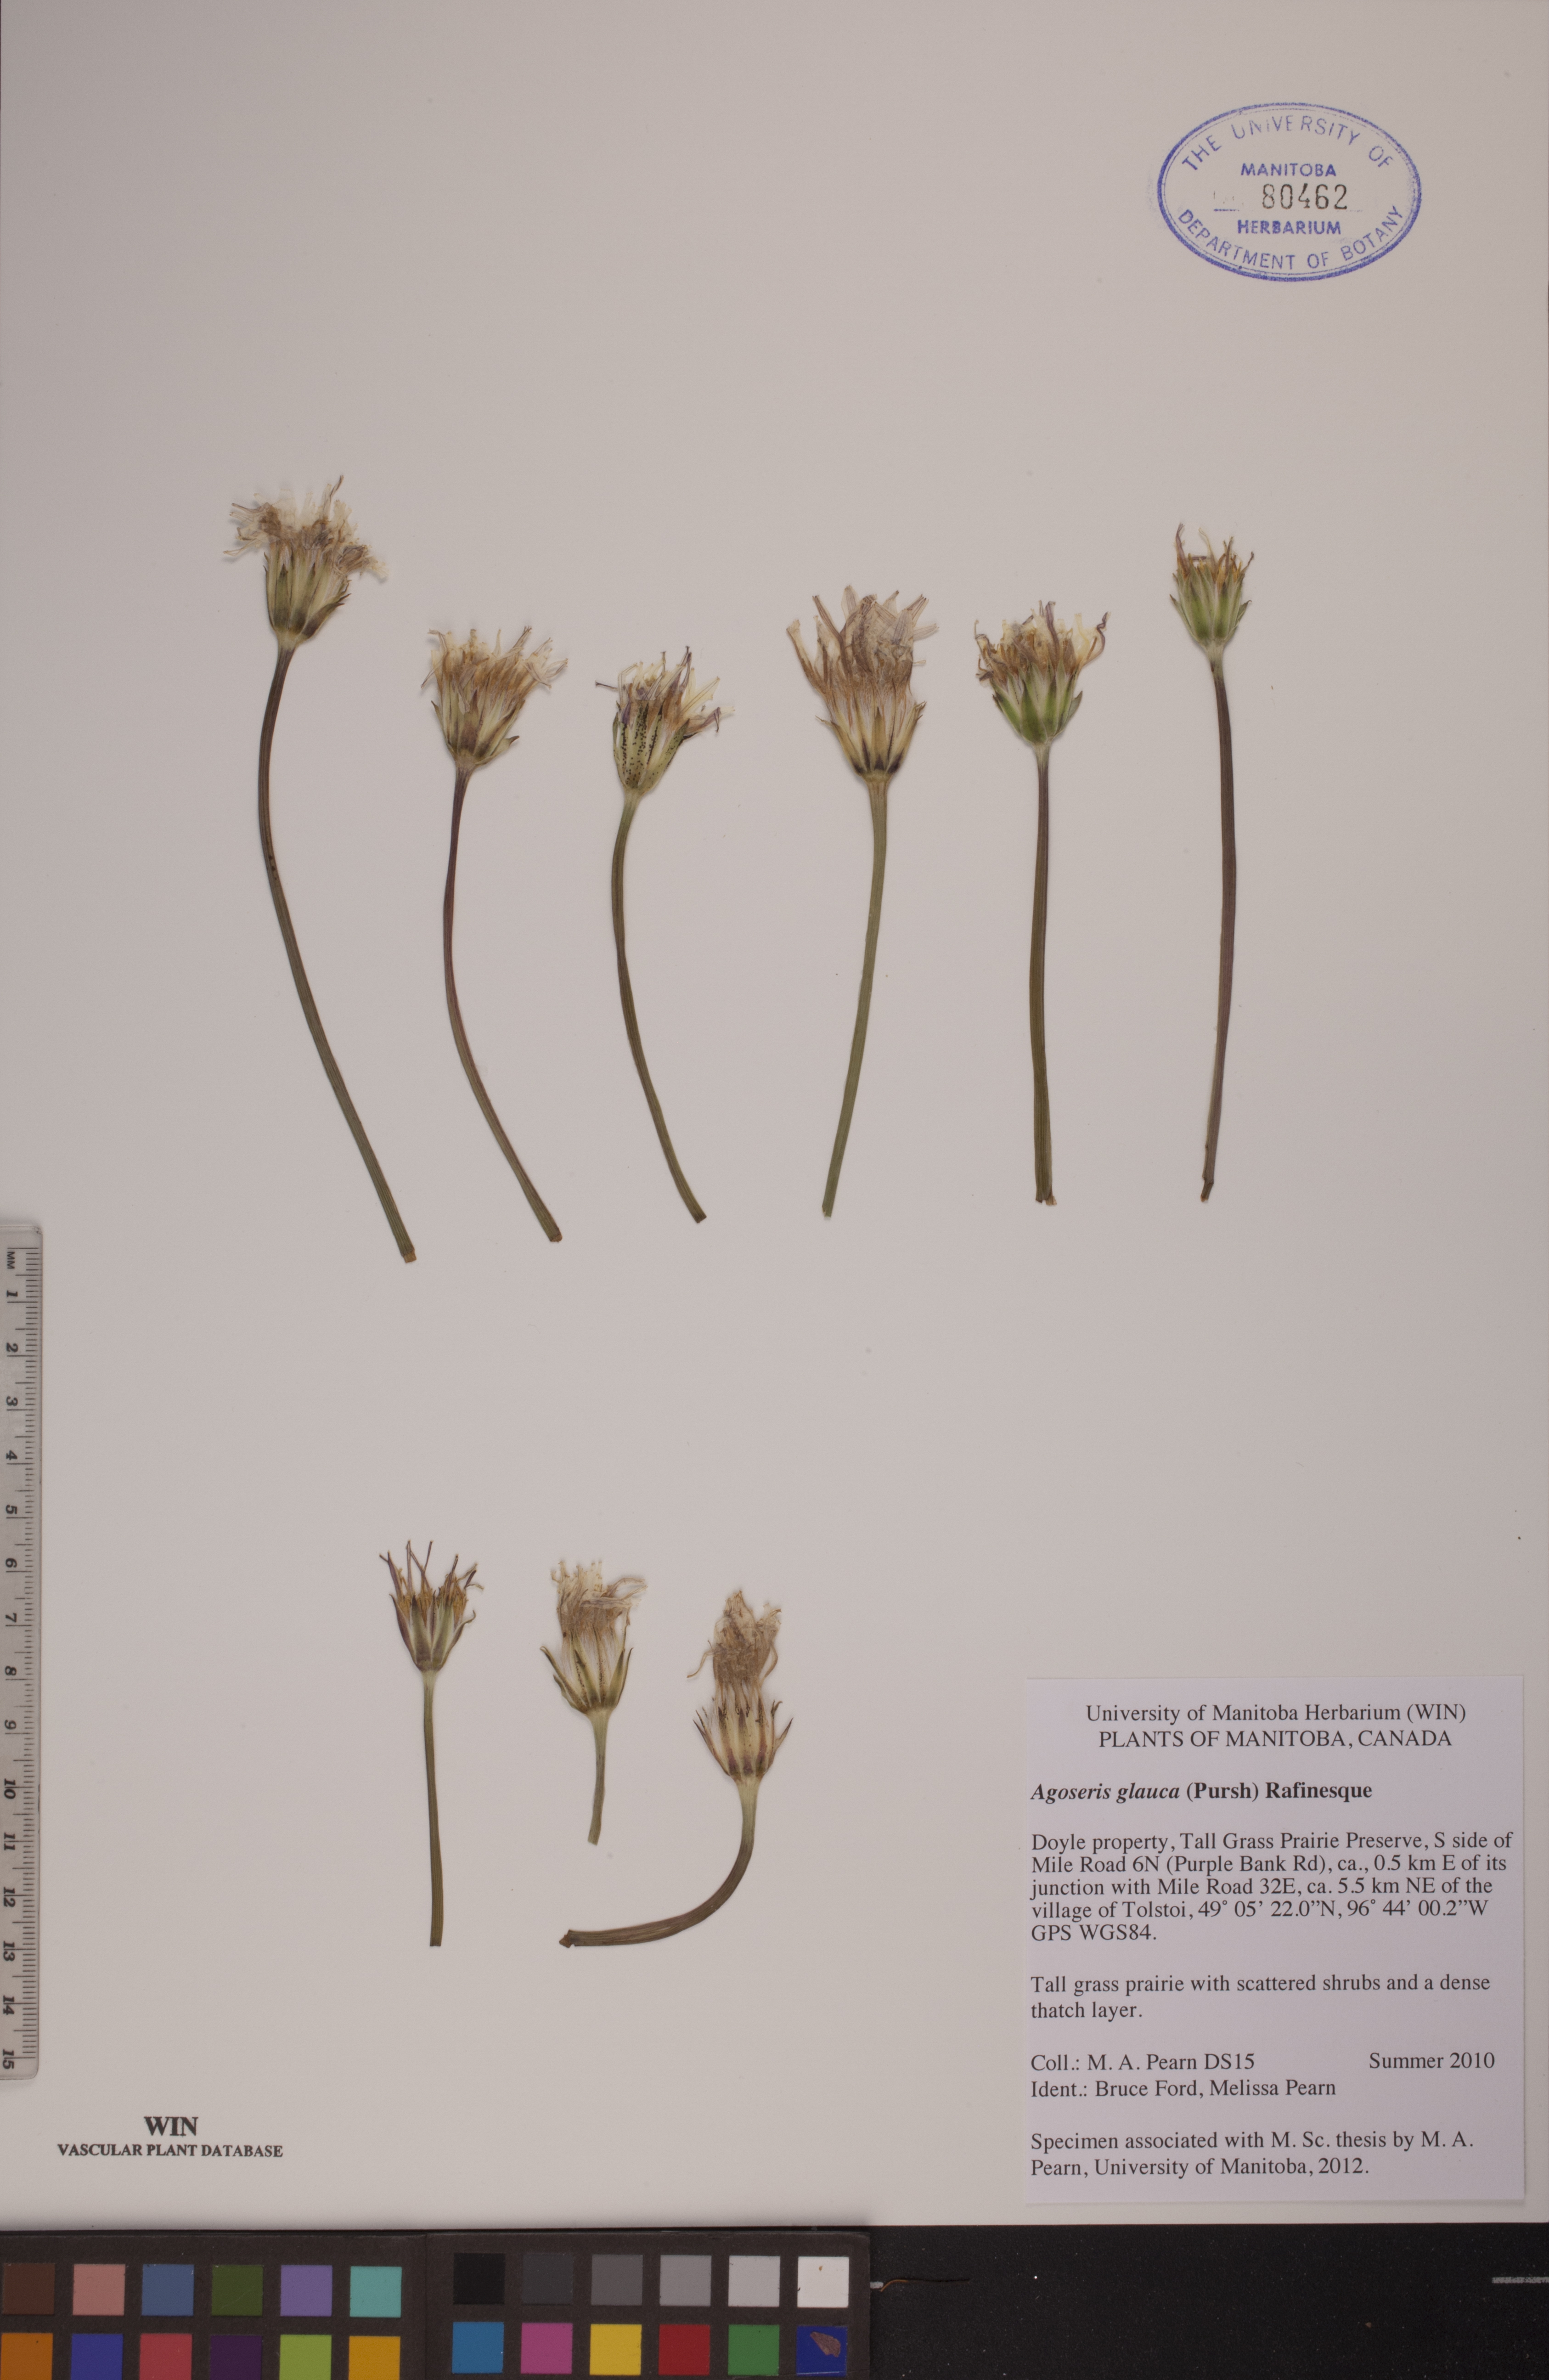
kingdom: Plantae
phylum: Tracheophyta
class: Magnoliopsida
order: Asterales
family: Asteraceae
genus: Agoseris
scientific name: Agoseris glauca
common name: Prairie agoseris
